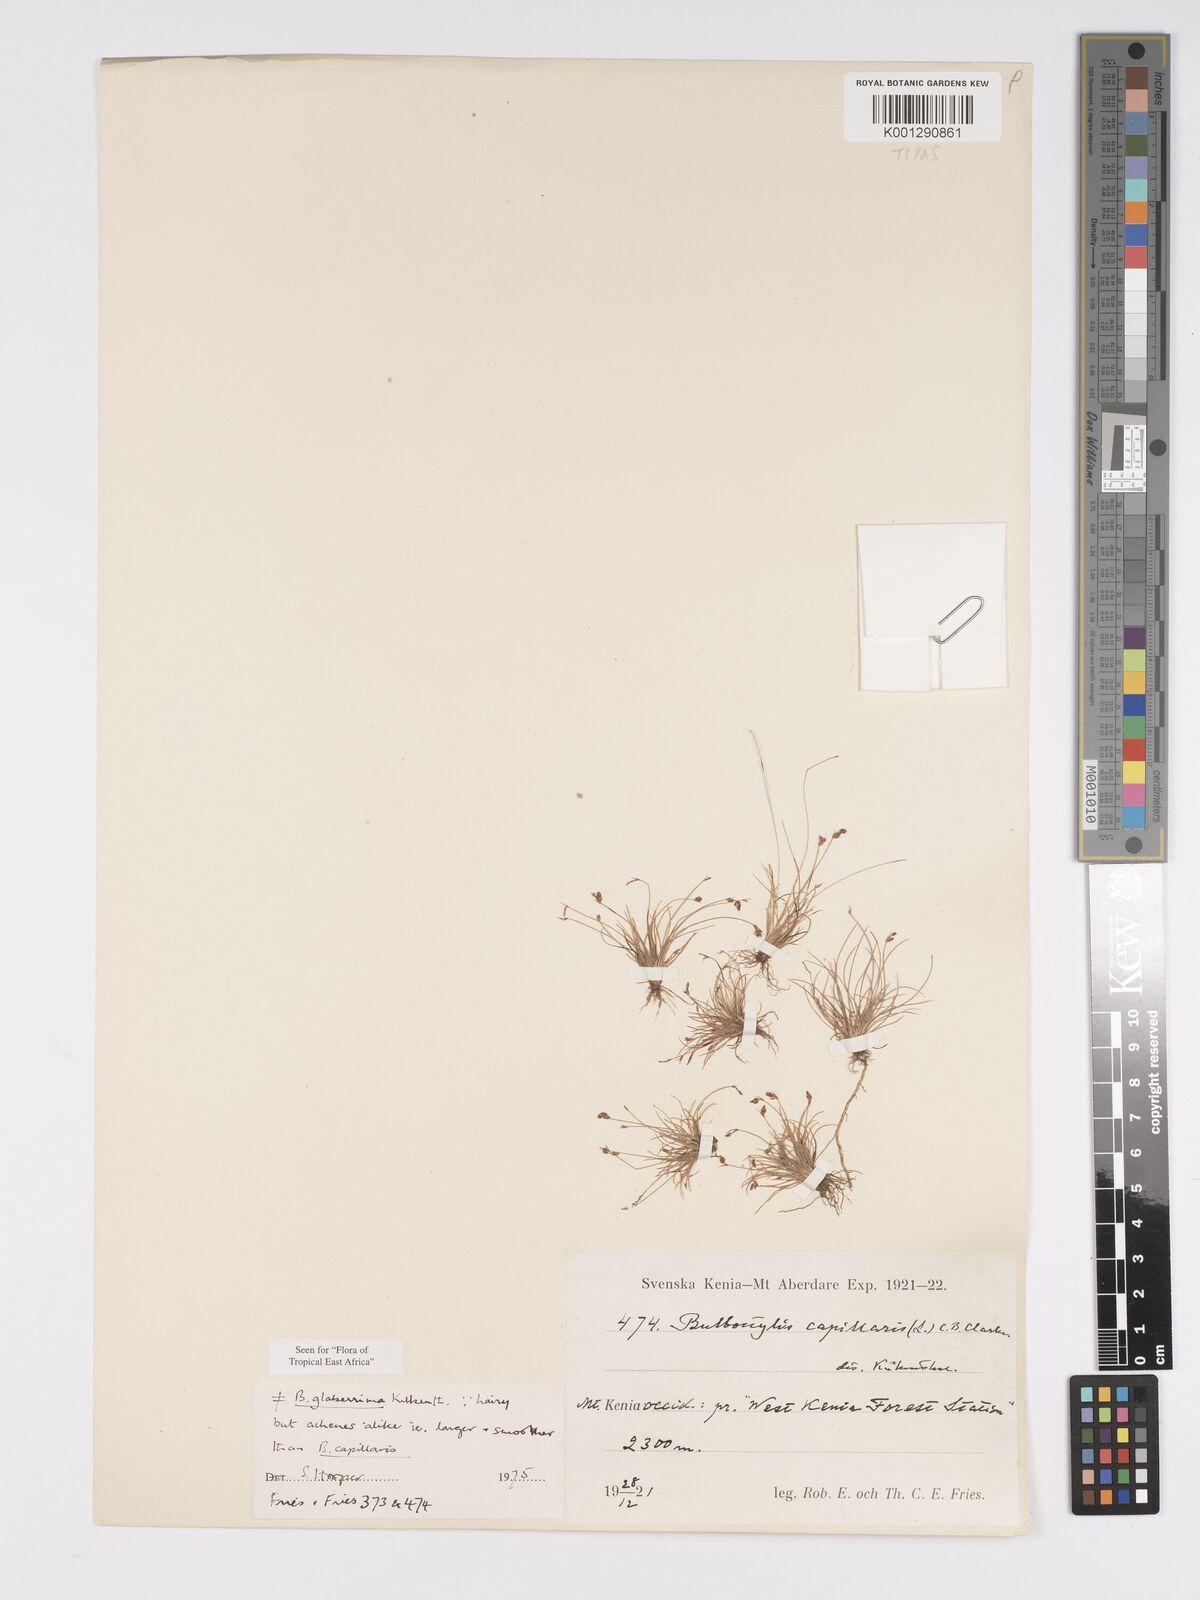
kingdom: Plantae
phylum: Tracheophyta
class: Liliopsida
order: Poales
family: Cyperaceae
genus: Bulbostylis
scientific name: Bulbostylis glaberrima
